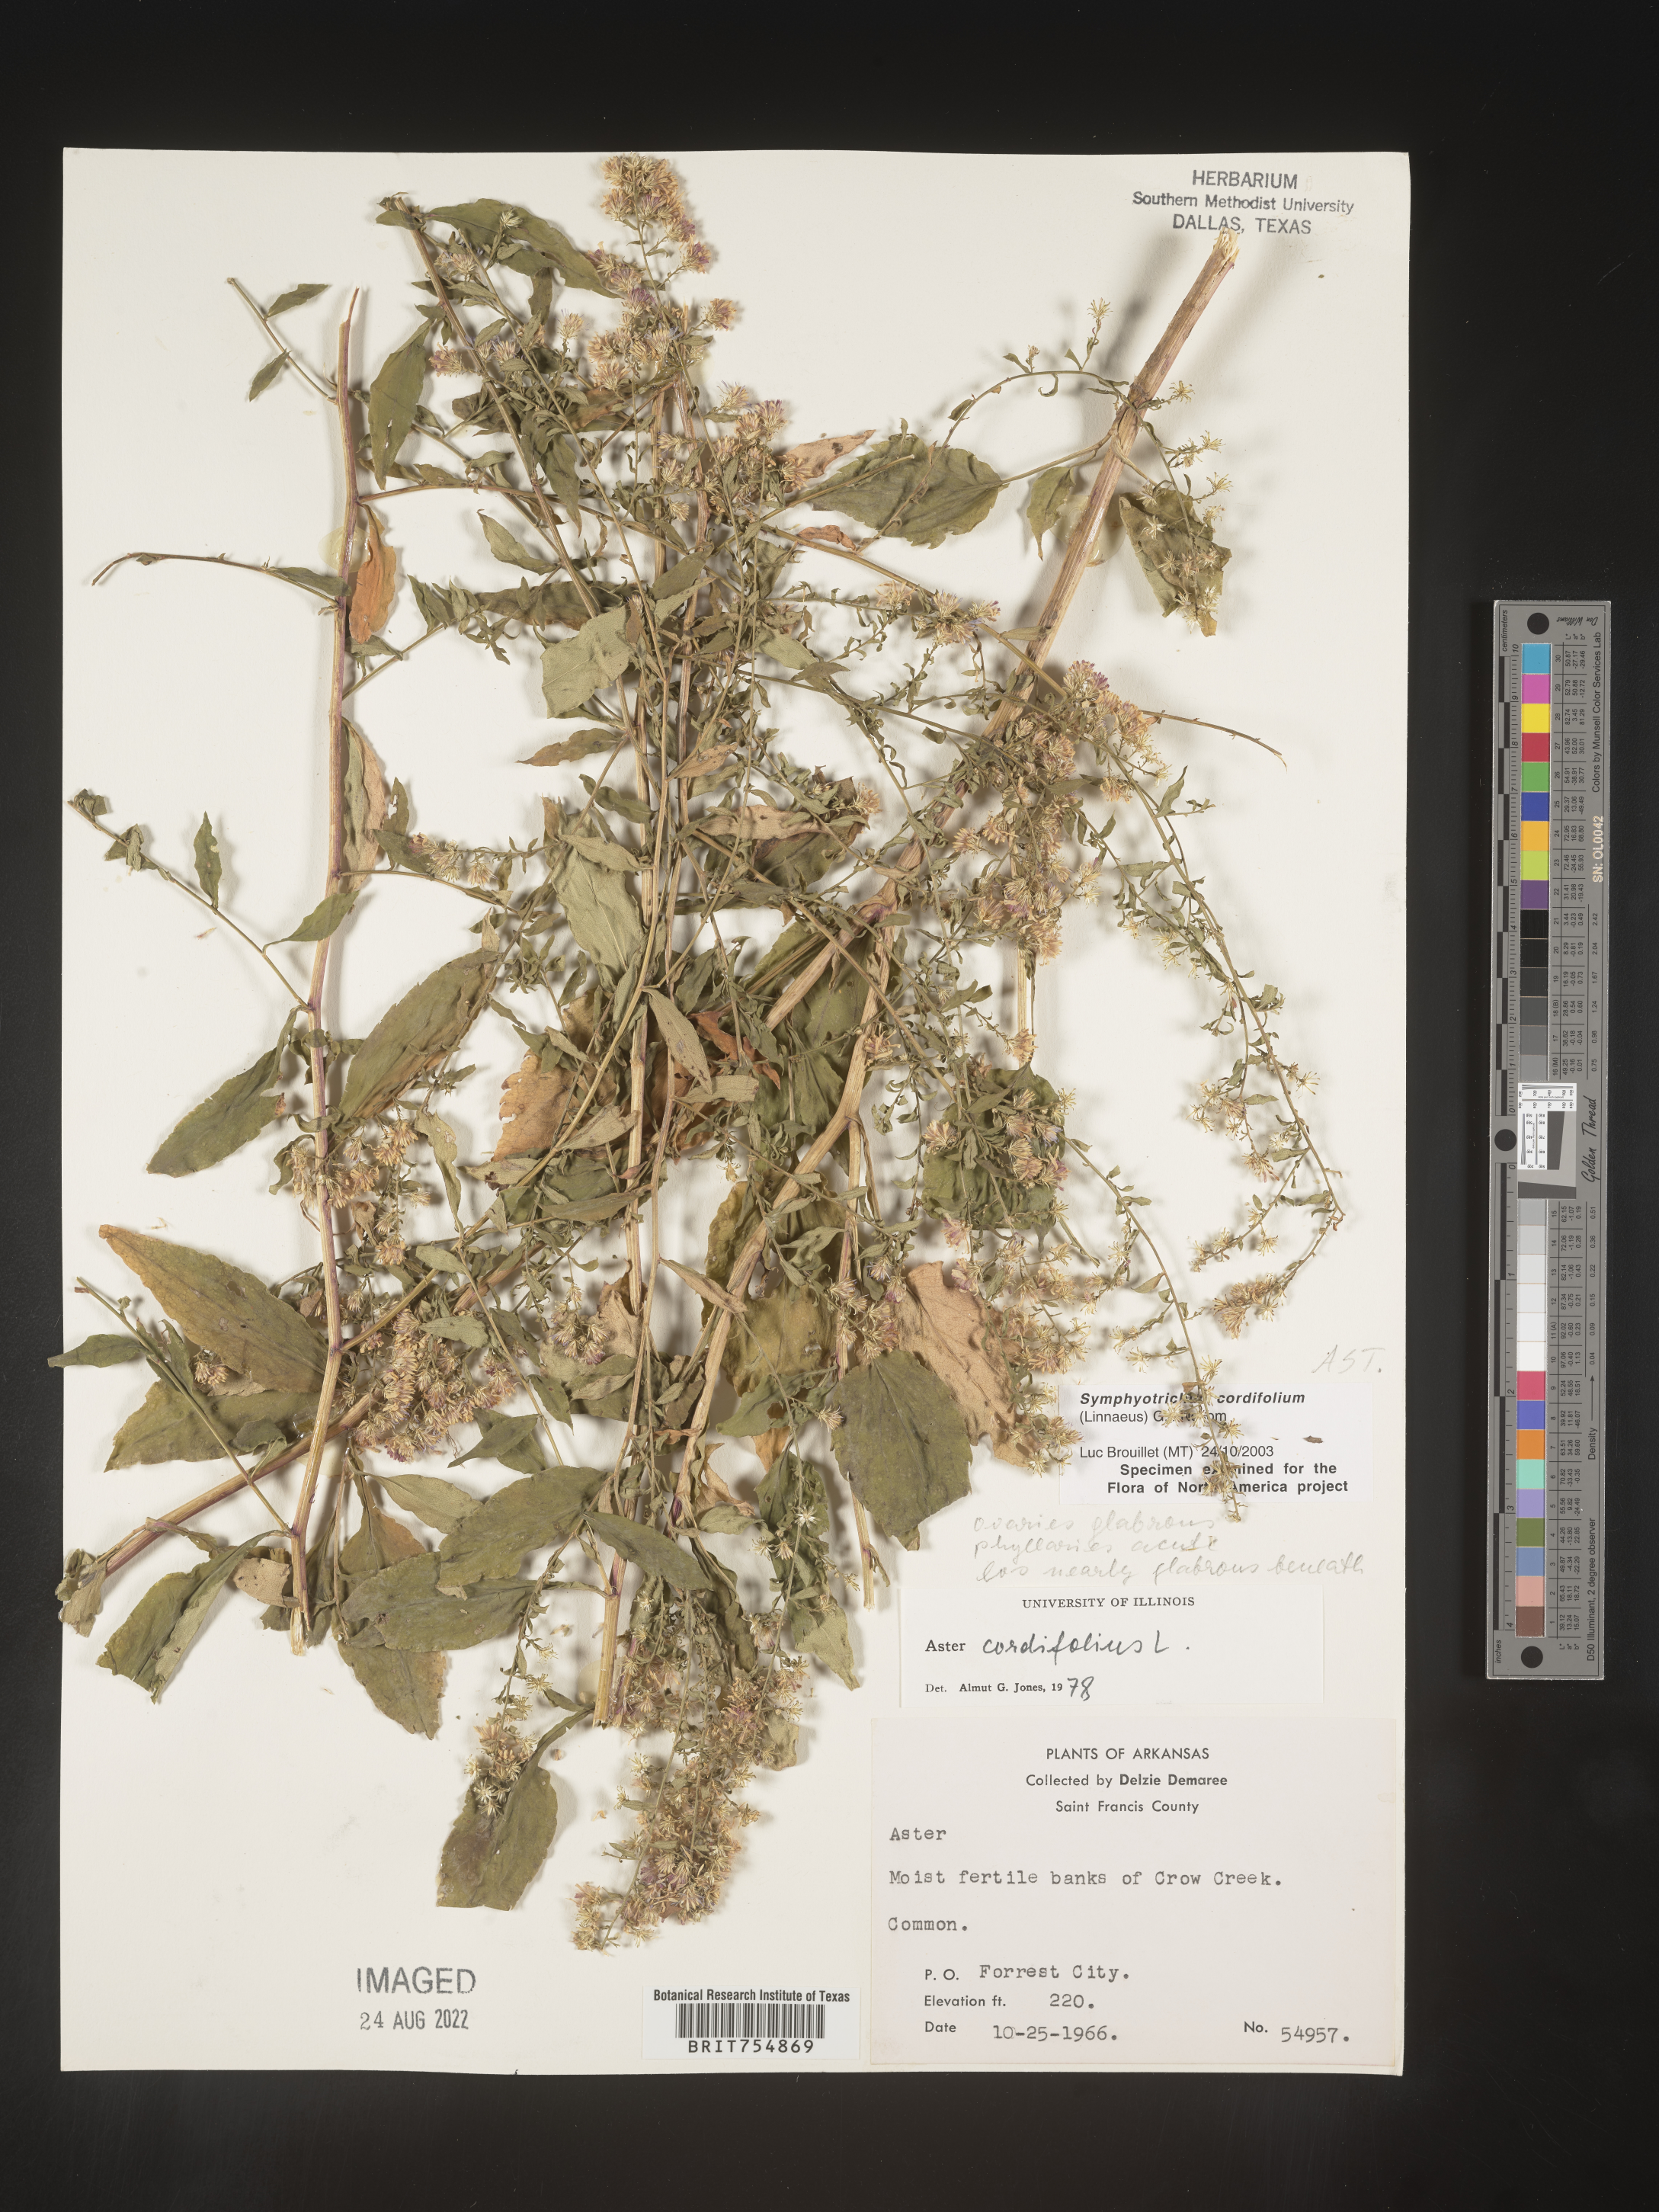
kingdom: Plantae
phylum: Tracheophyta
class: Magnoliopsida
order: Asterales
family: Asteraceae
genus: Symphyotrichum
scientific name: Symphyotrichum urophyllum
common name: Arrow-leaved aster
